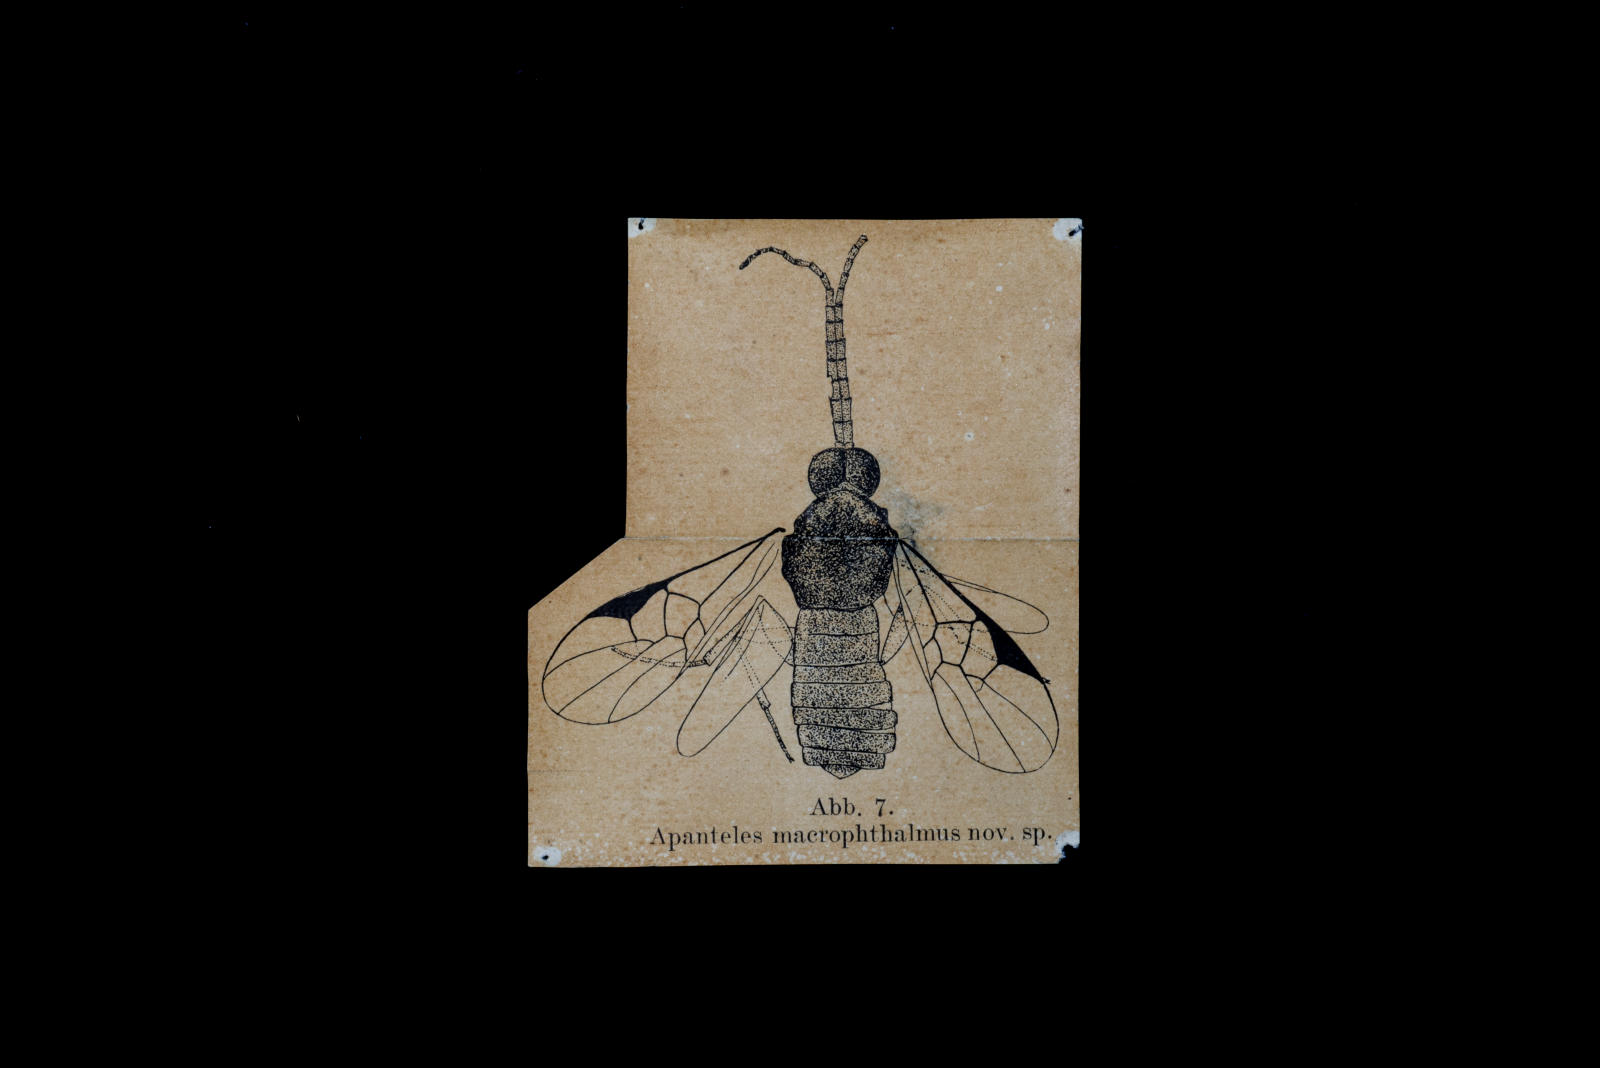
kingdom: Animalia
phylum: Arthropoda
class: Insecta
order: Hymenoptera
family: Braconidae
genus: Apanteles
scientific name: Apanteles macrophthalmus
